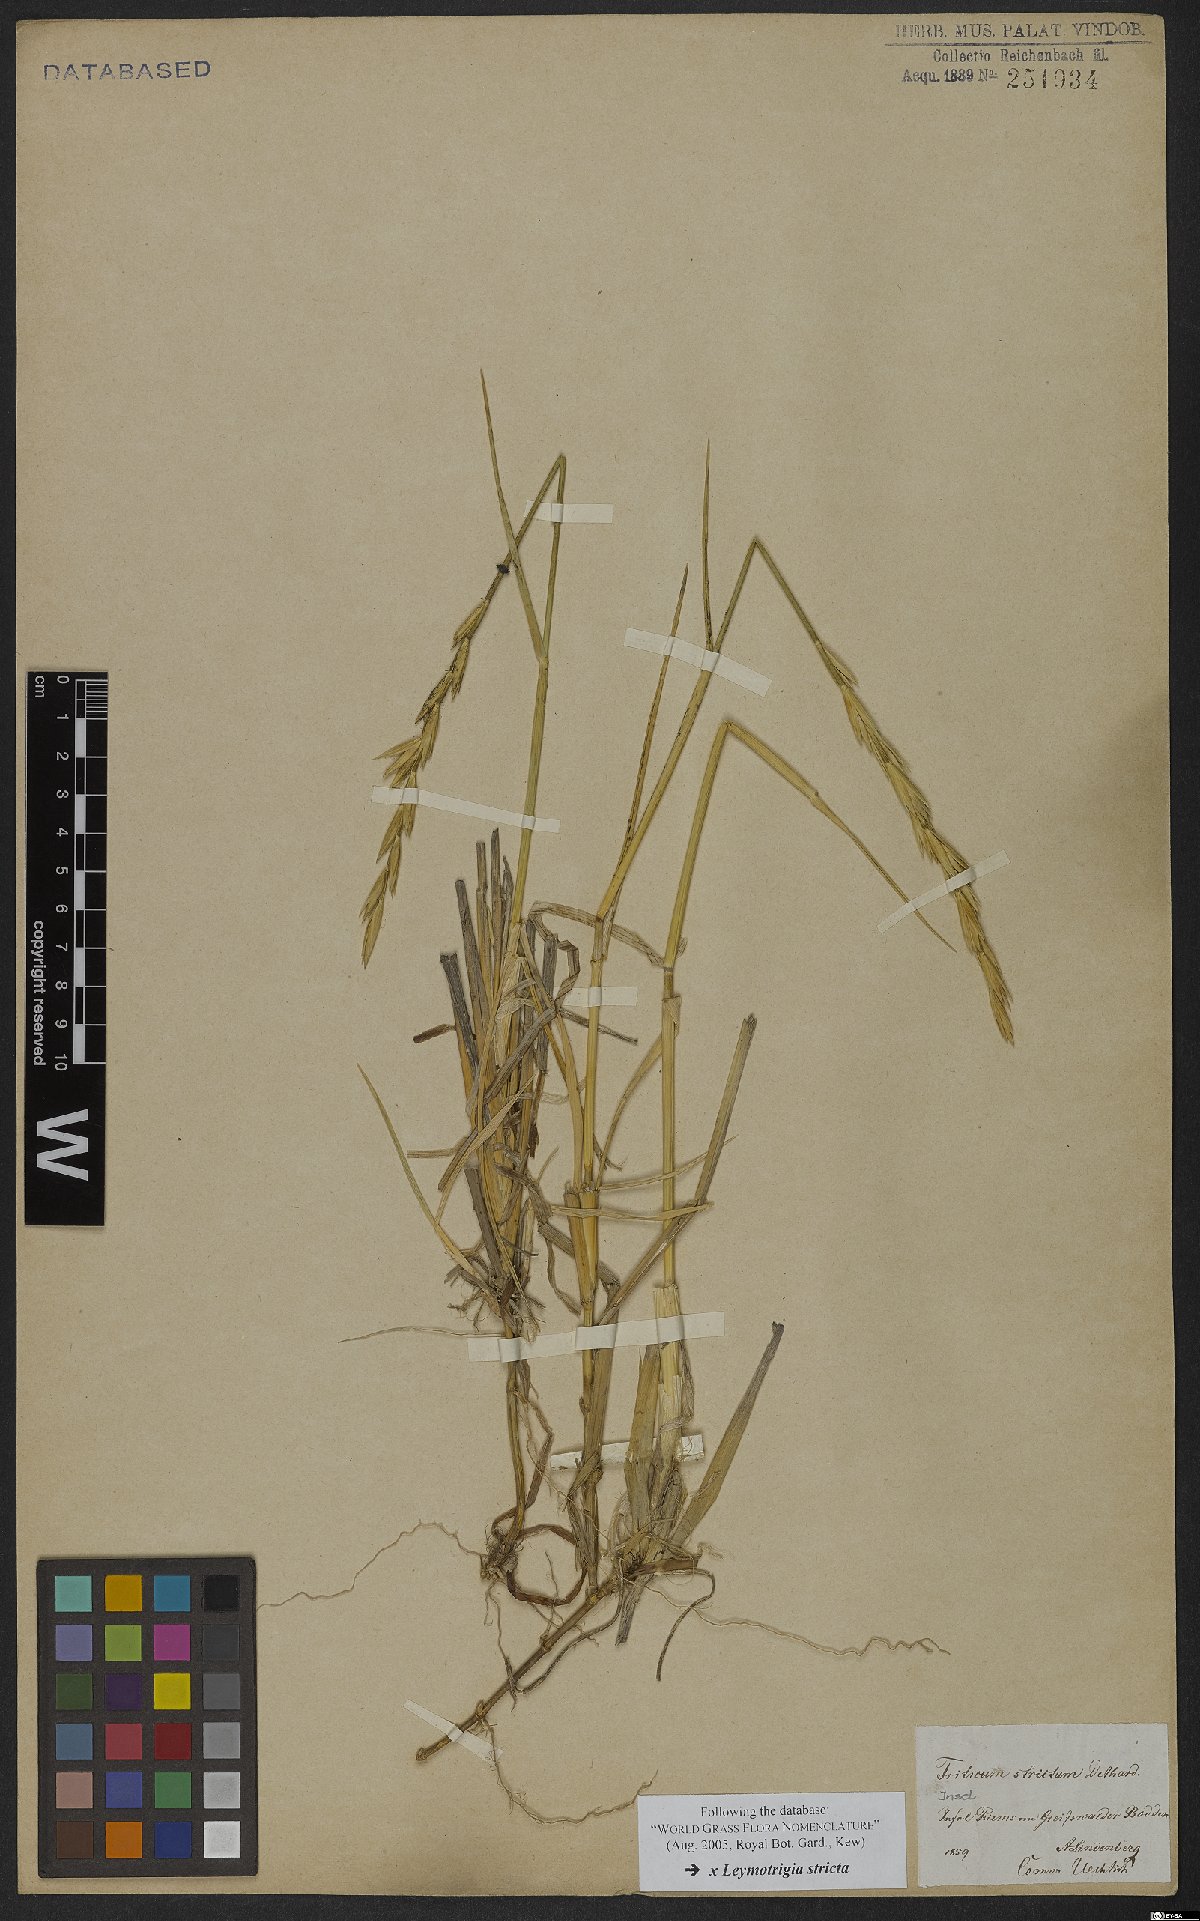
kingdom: Plantae
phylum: Tracheophyta
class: Liliopsida
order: Poales
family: Poaceae
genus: Elyleymus
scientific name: Elyleymus strictus
